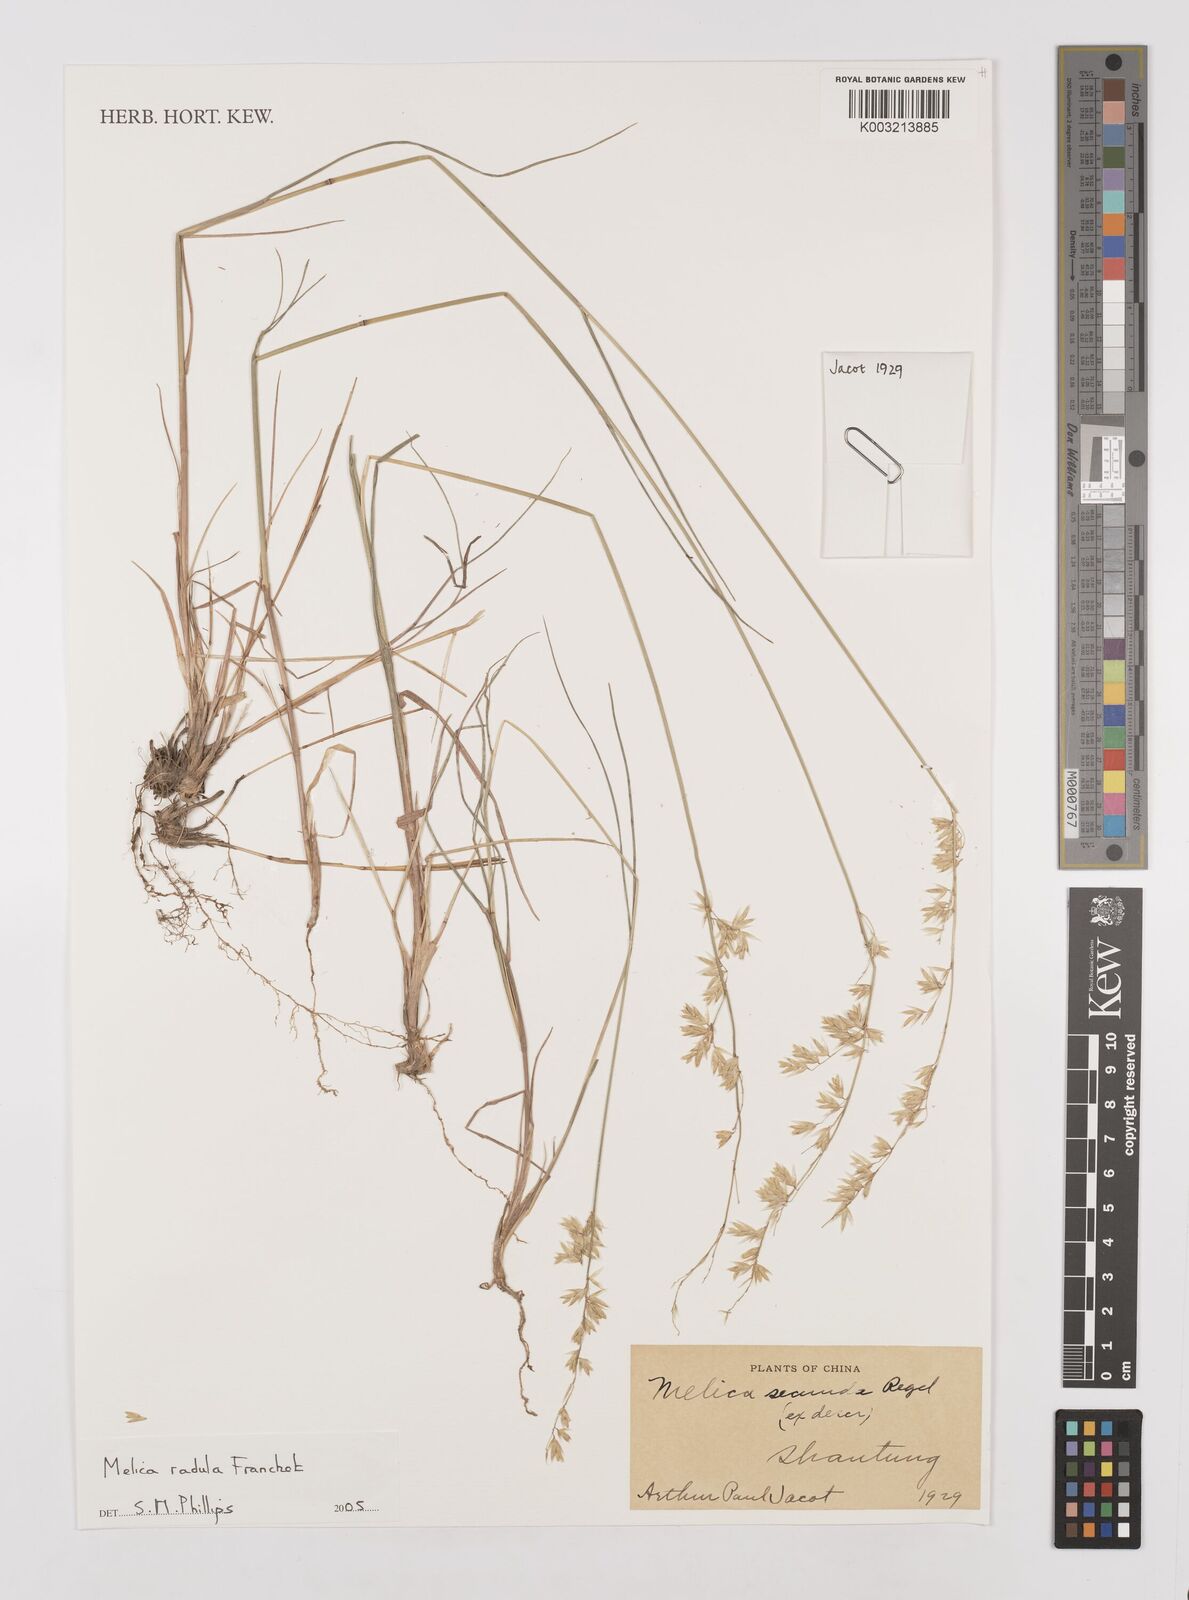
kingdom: Plantae
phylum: Tracheophyta
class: Liliopsida
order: Poales
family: Poaceae
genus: Melica
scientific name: Melica radula
